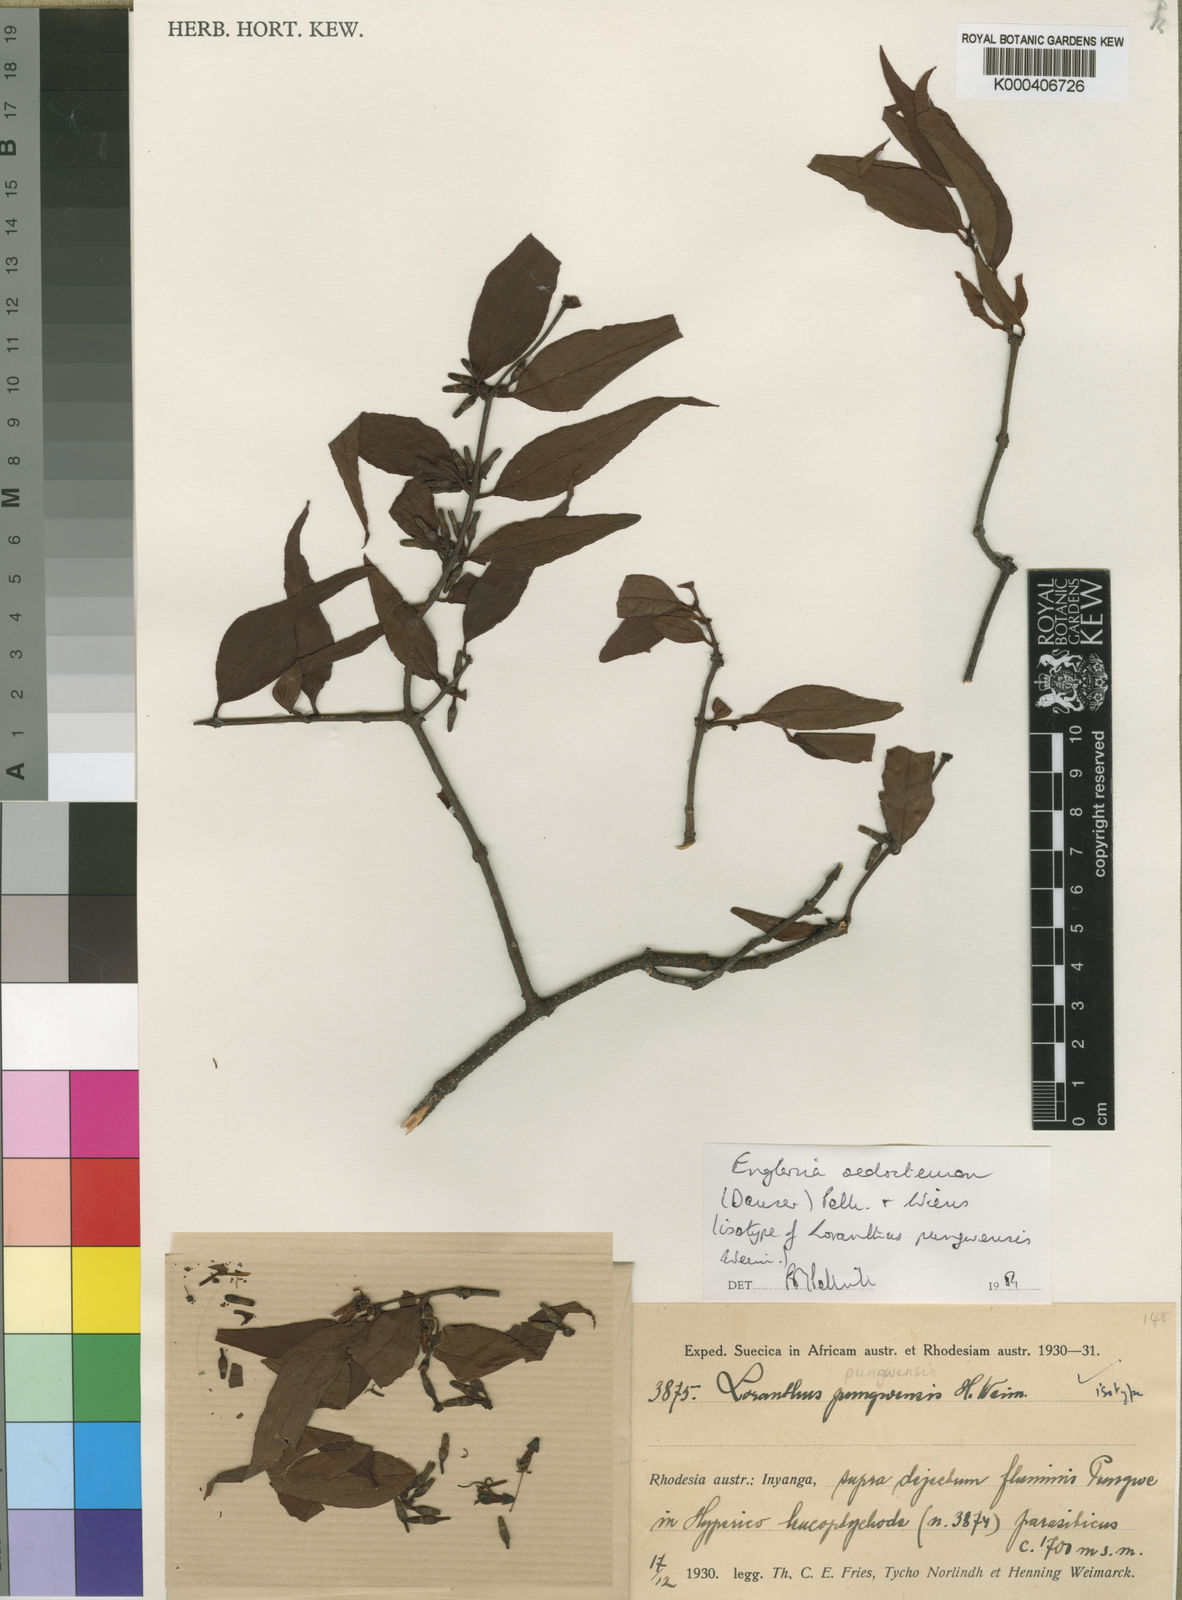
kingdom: Plantae
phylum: Tracheophyta
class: Magnoliopsida
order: Santalales
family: Loranthaceae
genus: Englerina
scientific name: Englerina oedostemon
